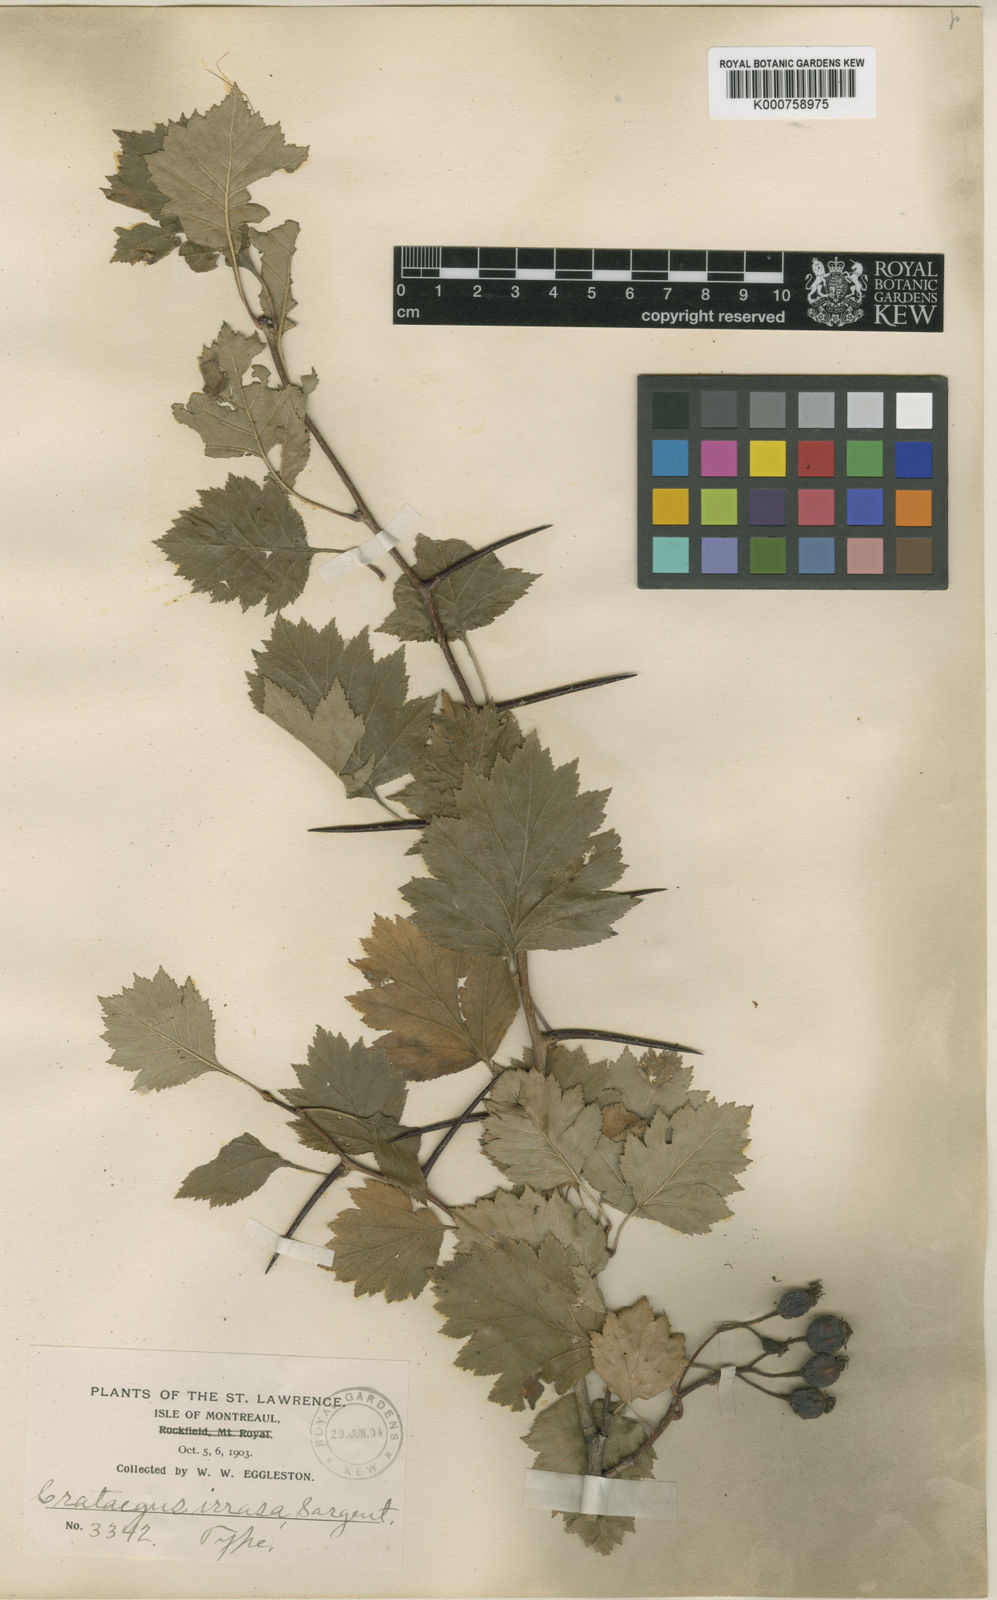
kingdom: Plantae
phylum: Tracheophyta
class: Magnoliopsida
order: Rosales
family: Rosaceae
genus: Crataegus
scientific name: Crataegus irrasa
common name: Unshorn hawthorn
